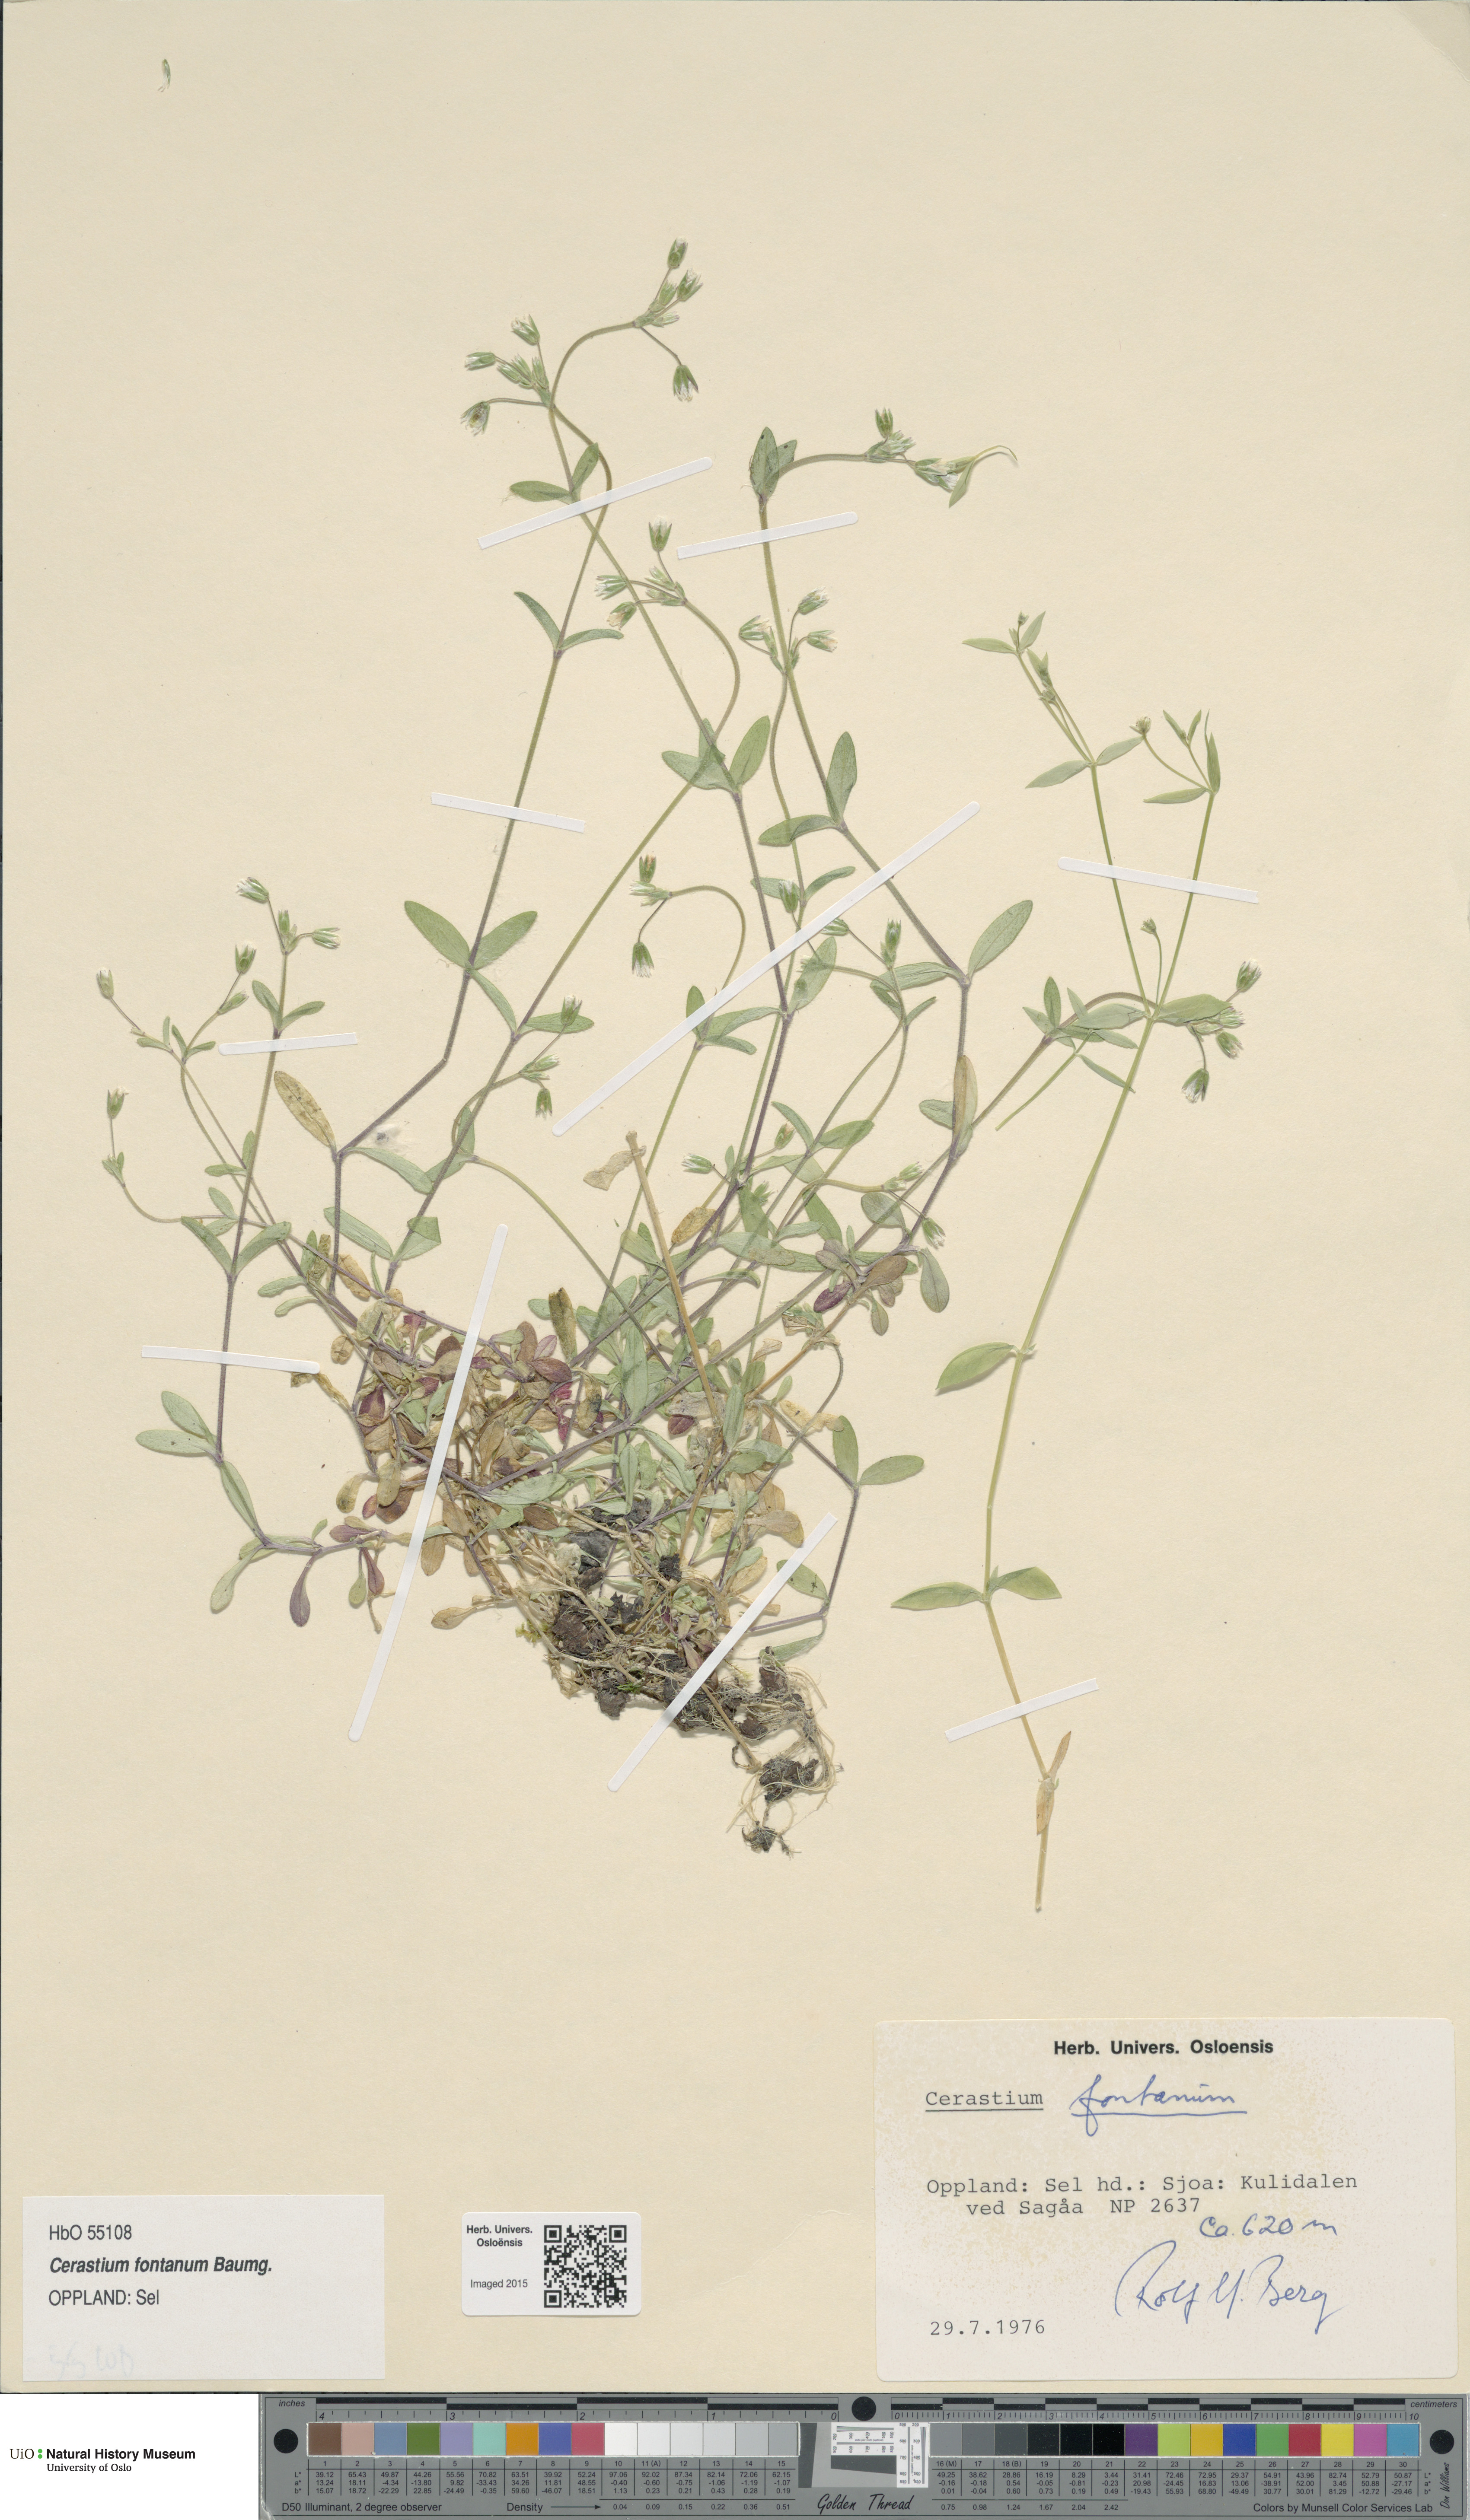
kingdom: Plantae
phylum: Tracheophyta
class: Magnoliopsida
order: Caryophyllales
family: Caryophyllaceae
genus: Cerastium
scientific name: Cerastium fontanum
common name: Common mouse-ear
